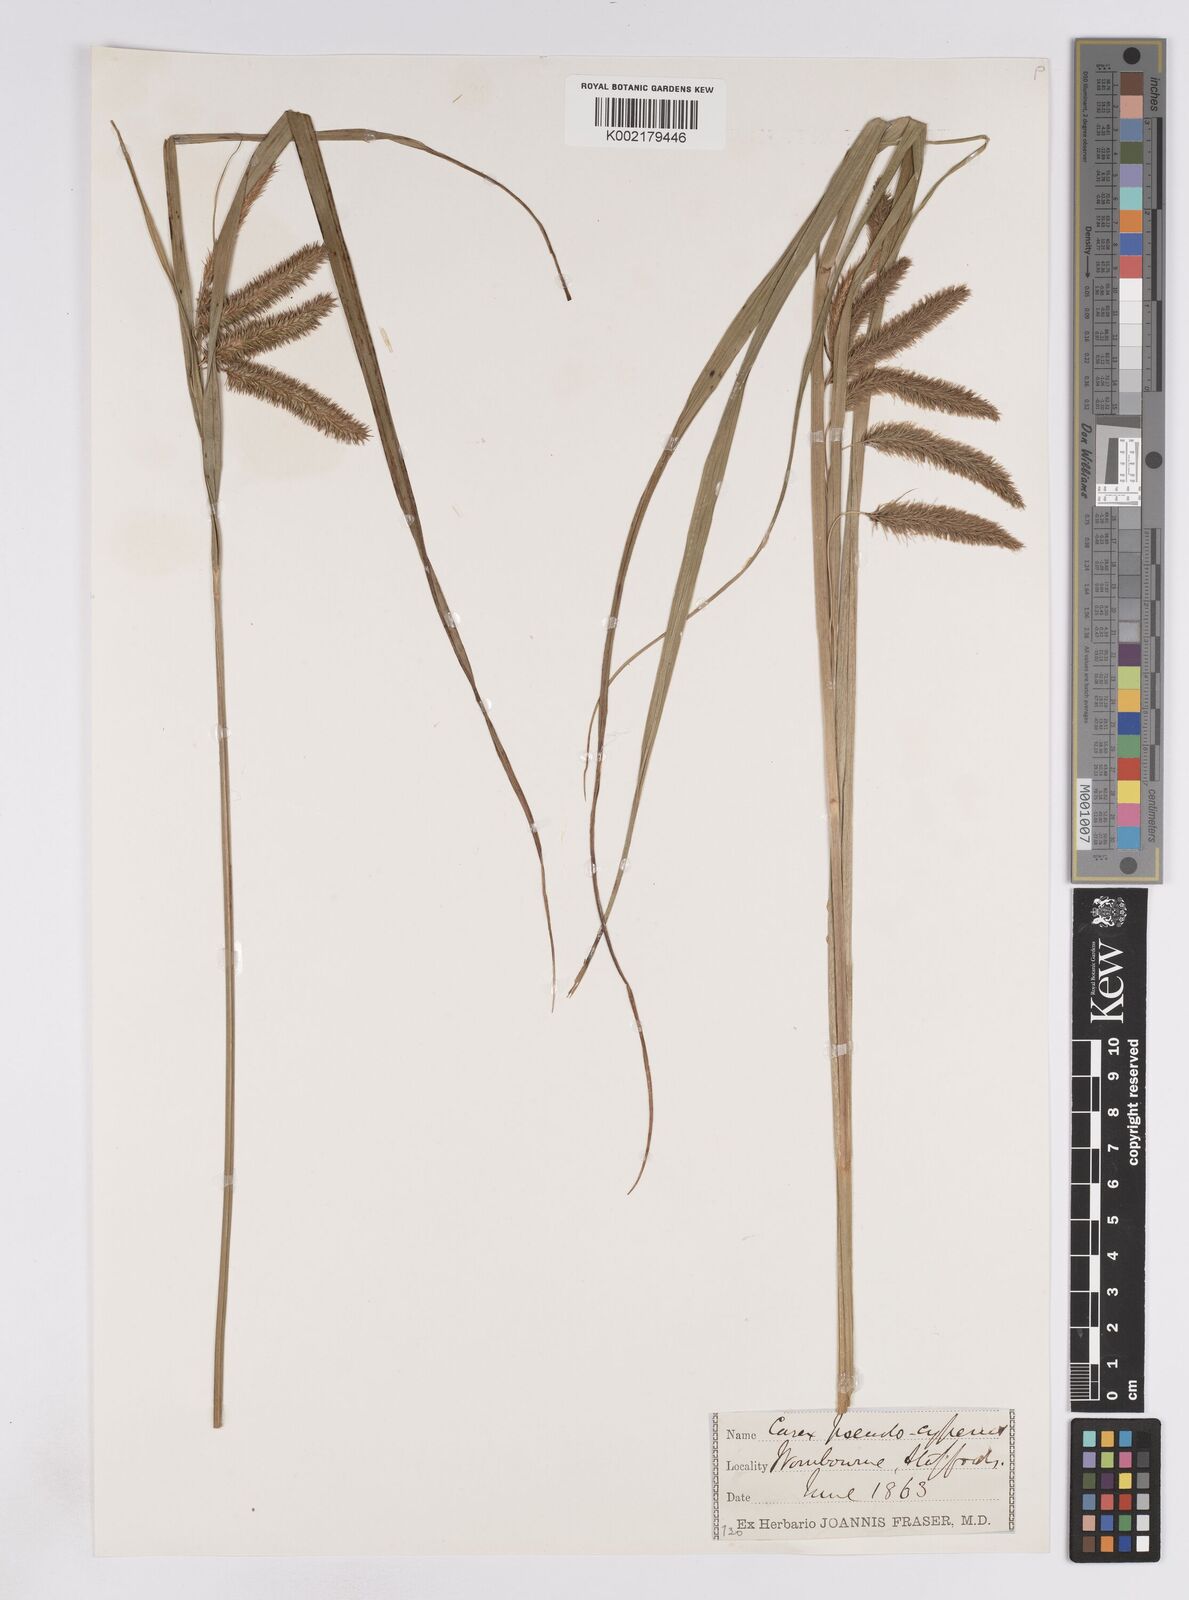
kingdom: Plantae
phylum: Tracheophyta
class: Liliopsida
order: Poales
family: Cyperaceae
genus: Carex
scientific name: Carex pseudocyperus
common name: Cyperus sedge
